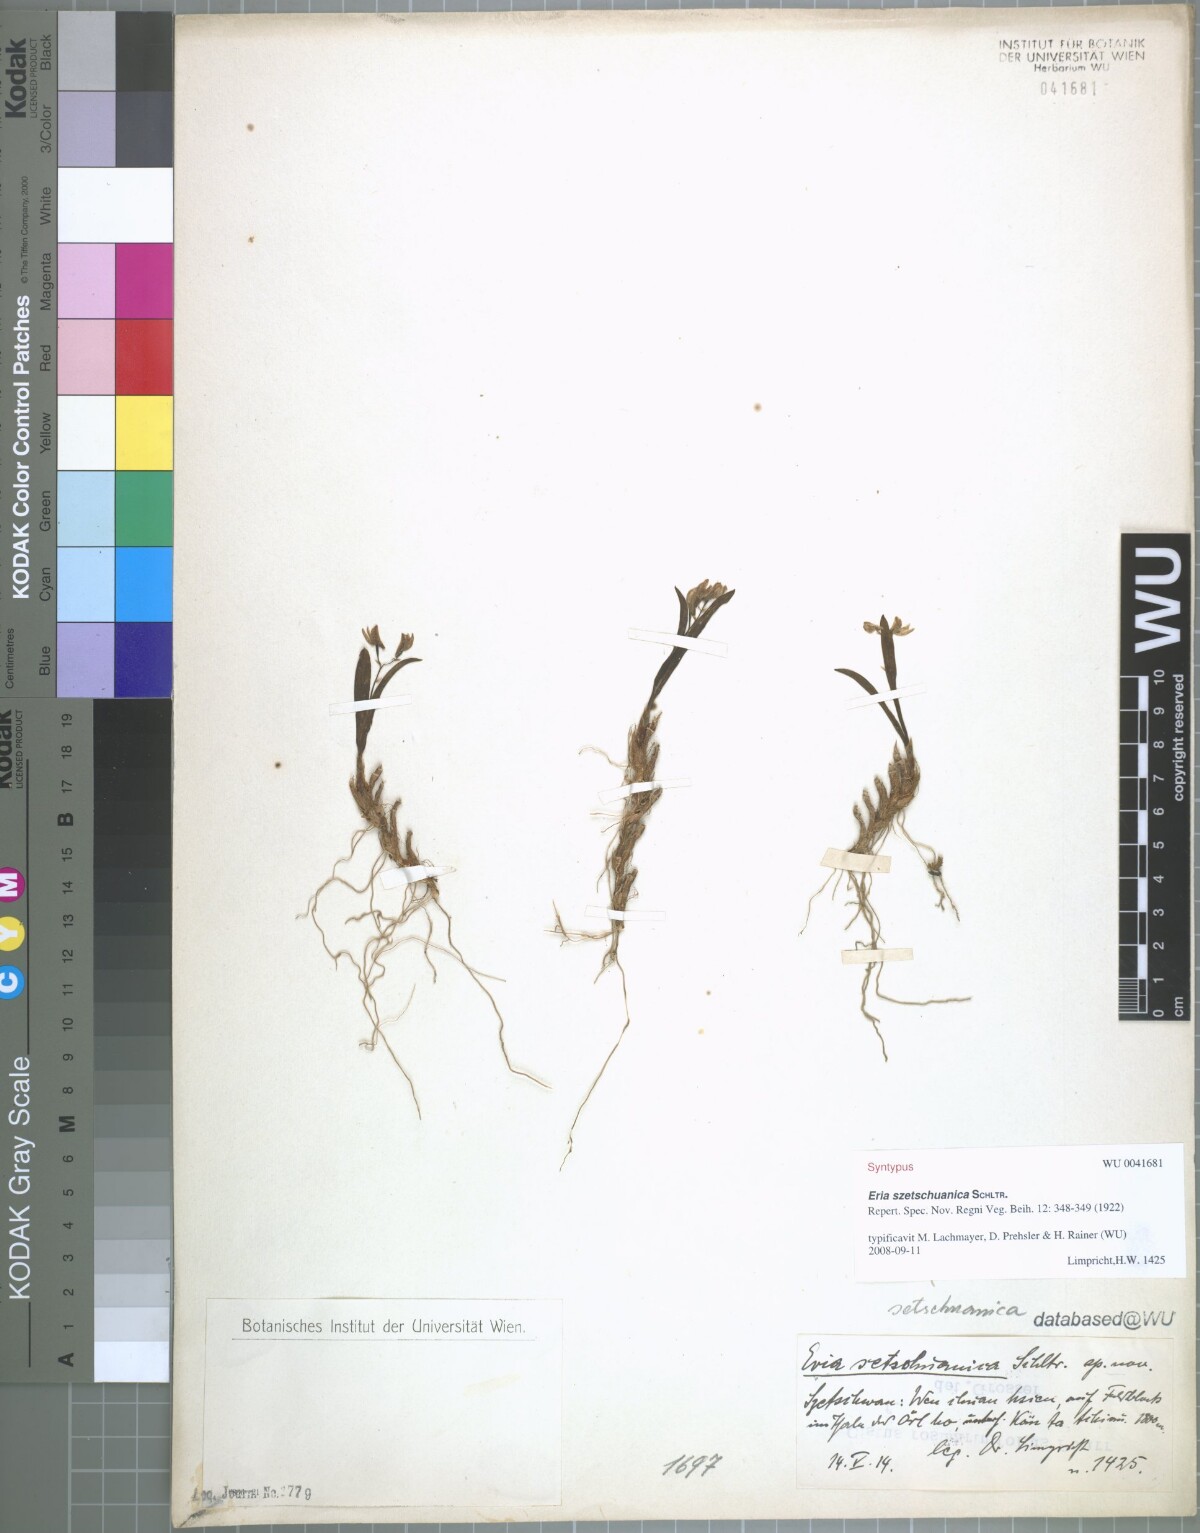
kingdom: Plantae
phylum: Tracheophyta
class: Liliopsida
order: Asparagales
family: Orchidaceae
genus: Pinalia
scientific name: Pinalia szetschuanica
